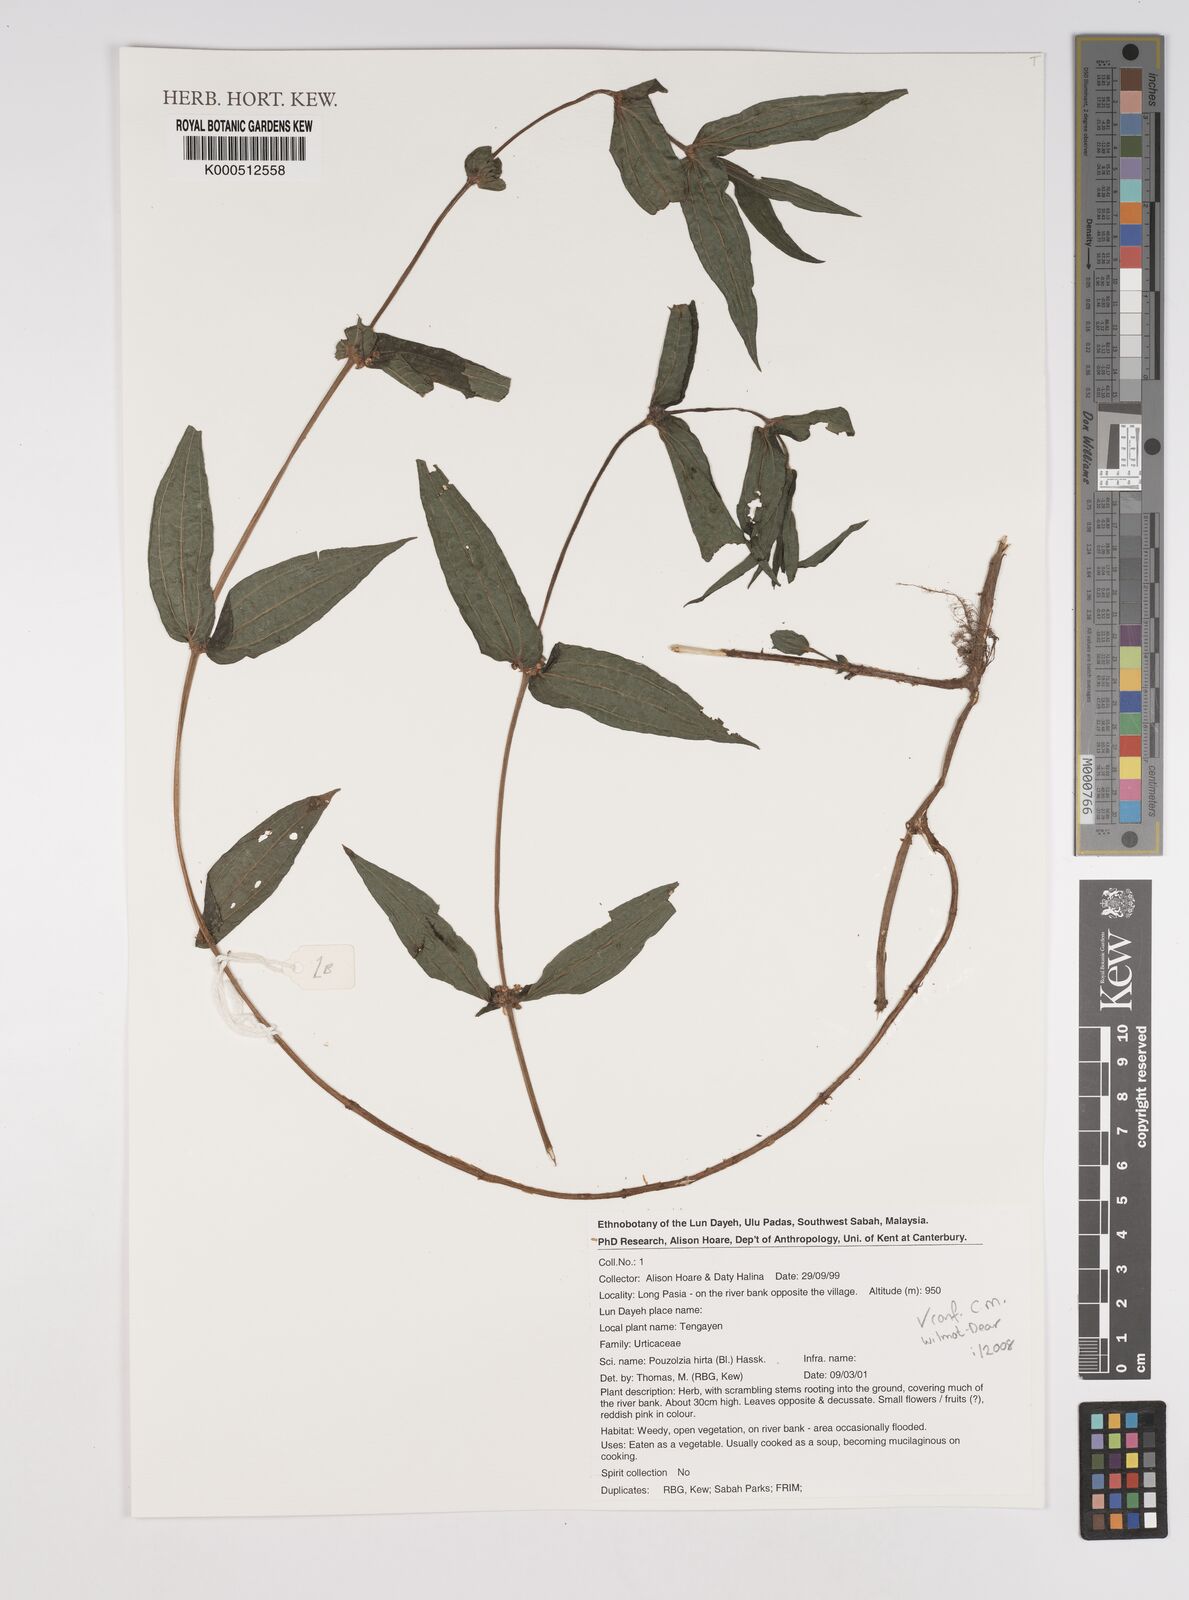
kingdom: Plantae
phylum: Tracheophyta
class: Magnoliopsida
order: Rosales
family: Urticaceae
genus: Gonostegia
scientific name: Gonostegia triandra
